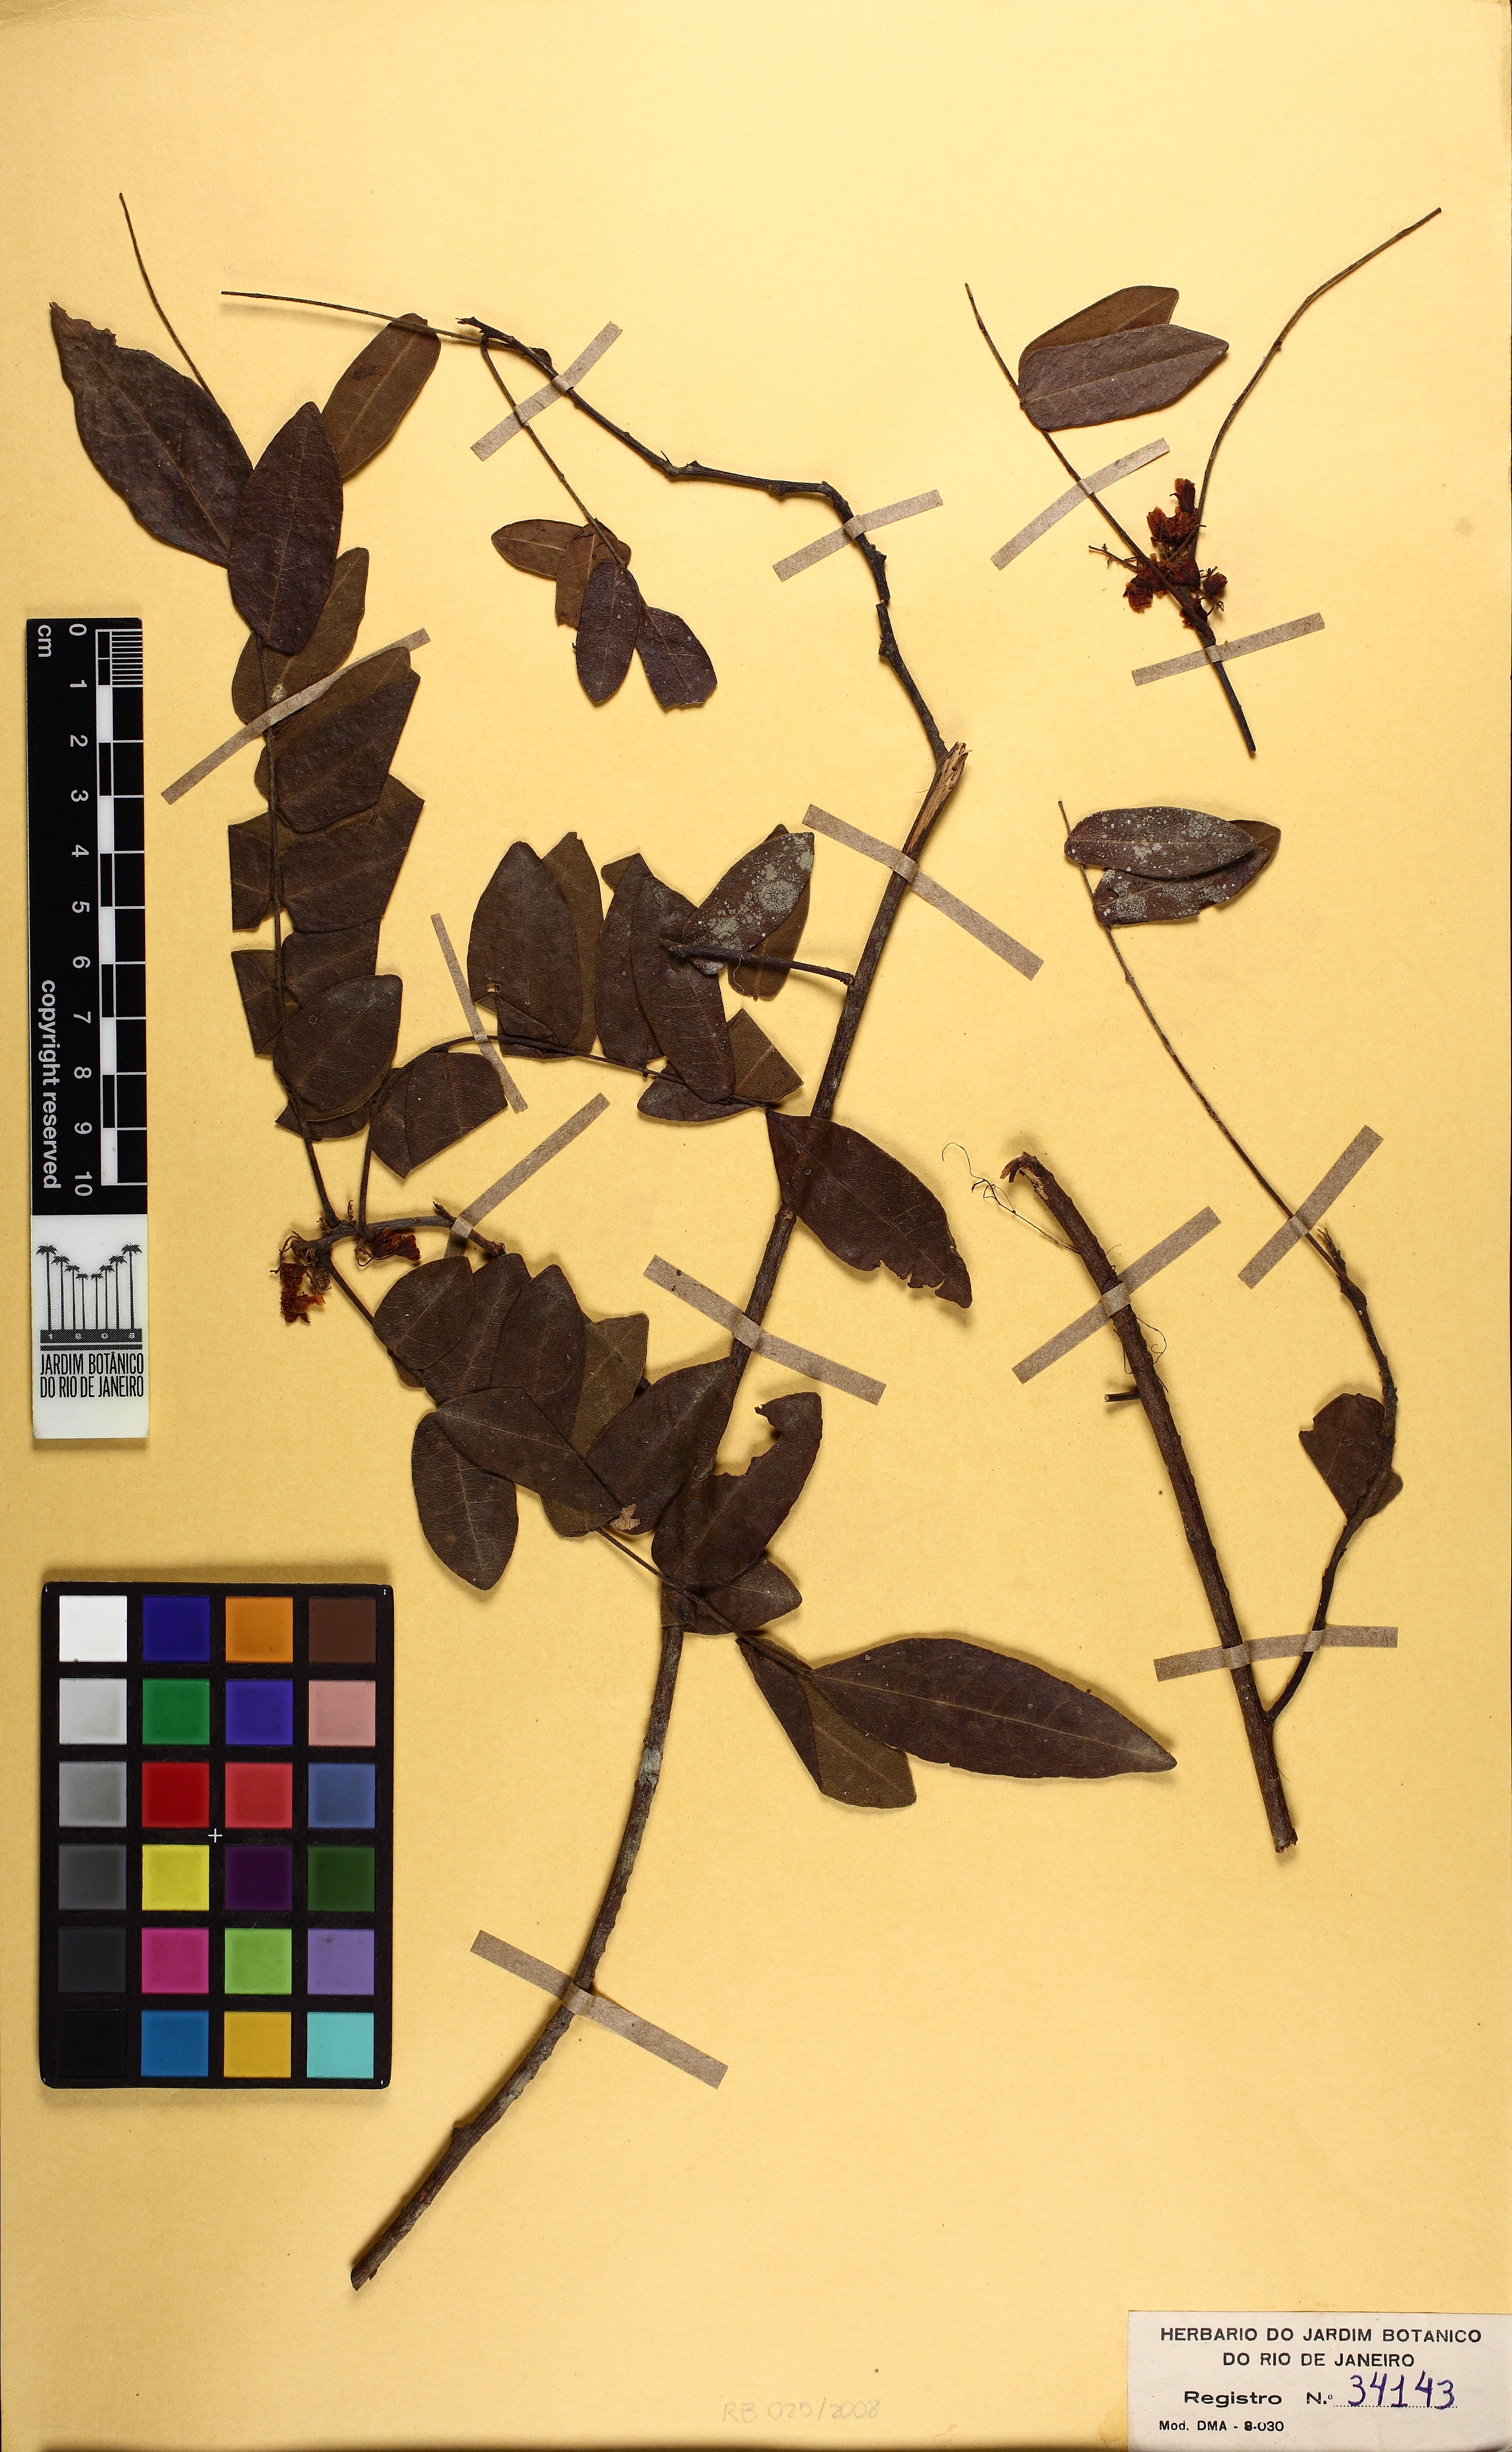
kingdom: Plantae
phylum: Tracheophyta
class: Magnoliopsida
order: Oxalidales
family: Connaraceae
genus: Rourea
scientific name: Rourea cnestidifolia
